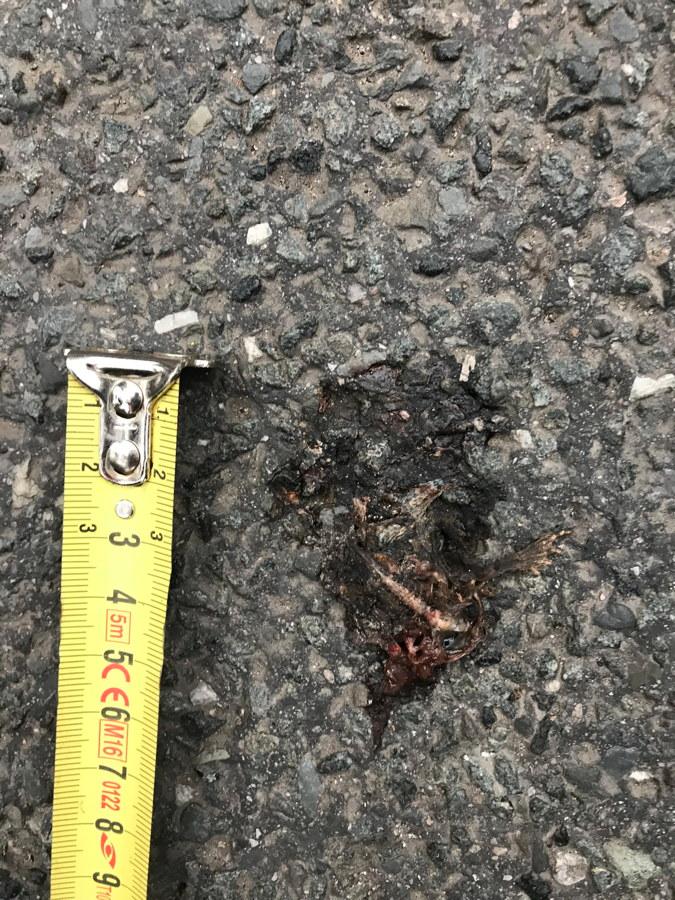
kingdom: Animalia
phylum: Chordata
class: Amphibia
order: Anura
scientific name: Anura
